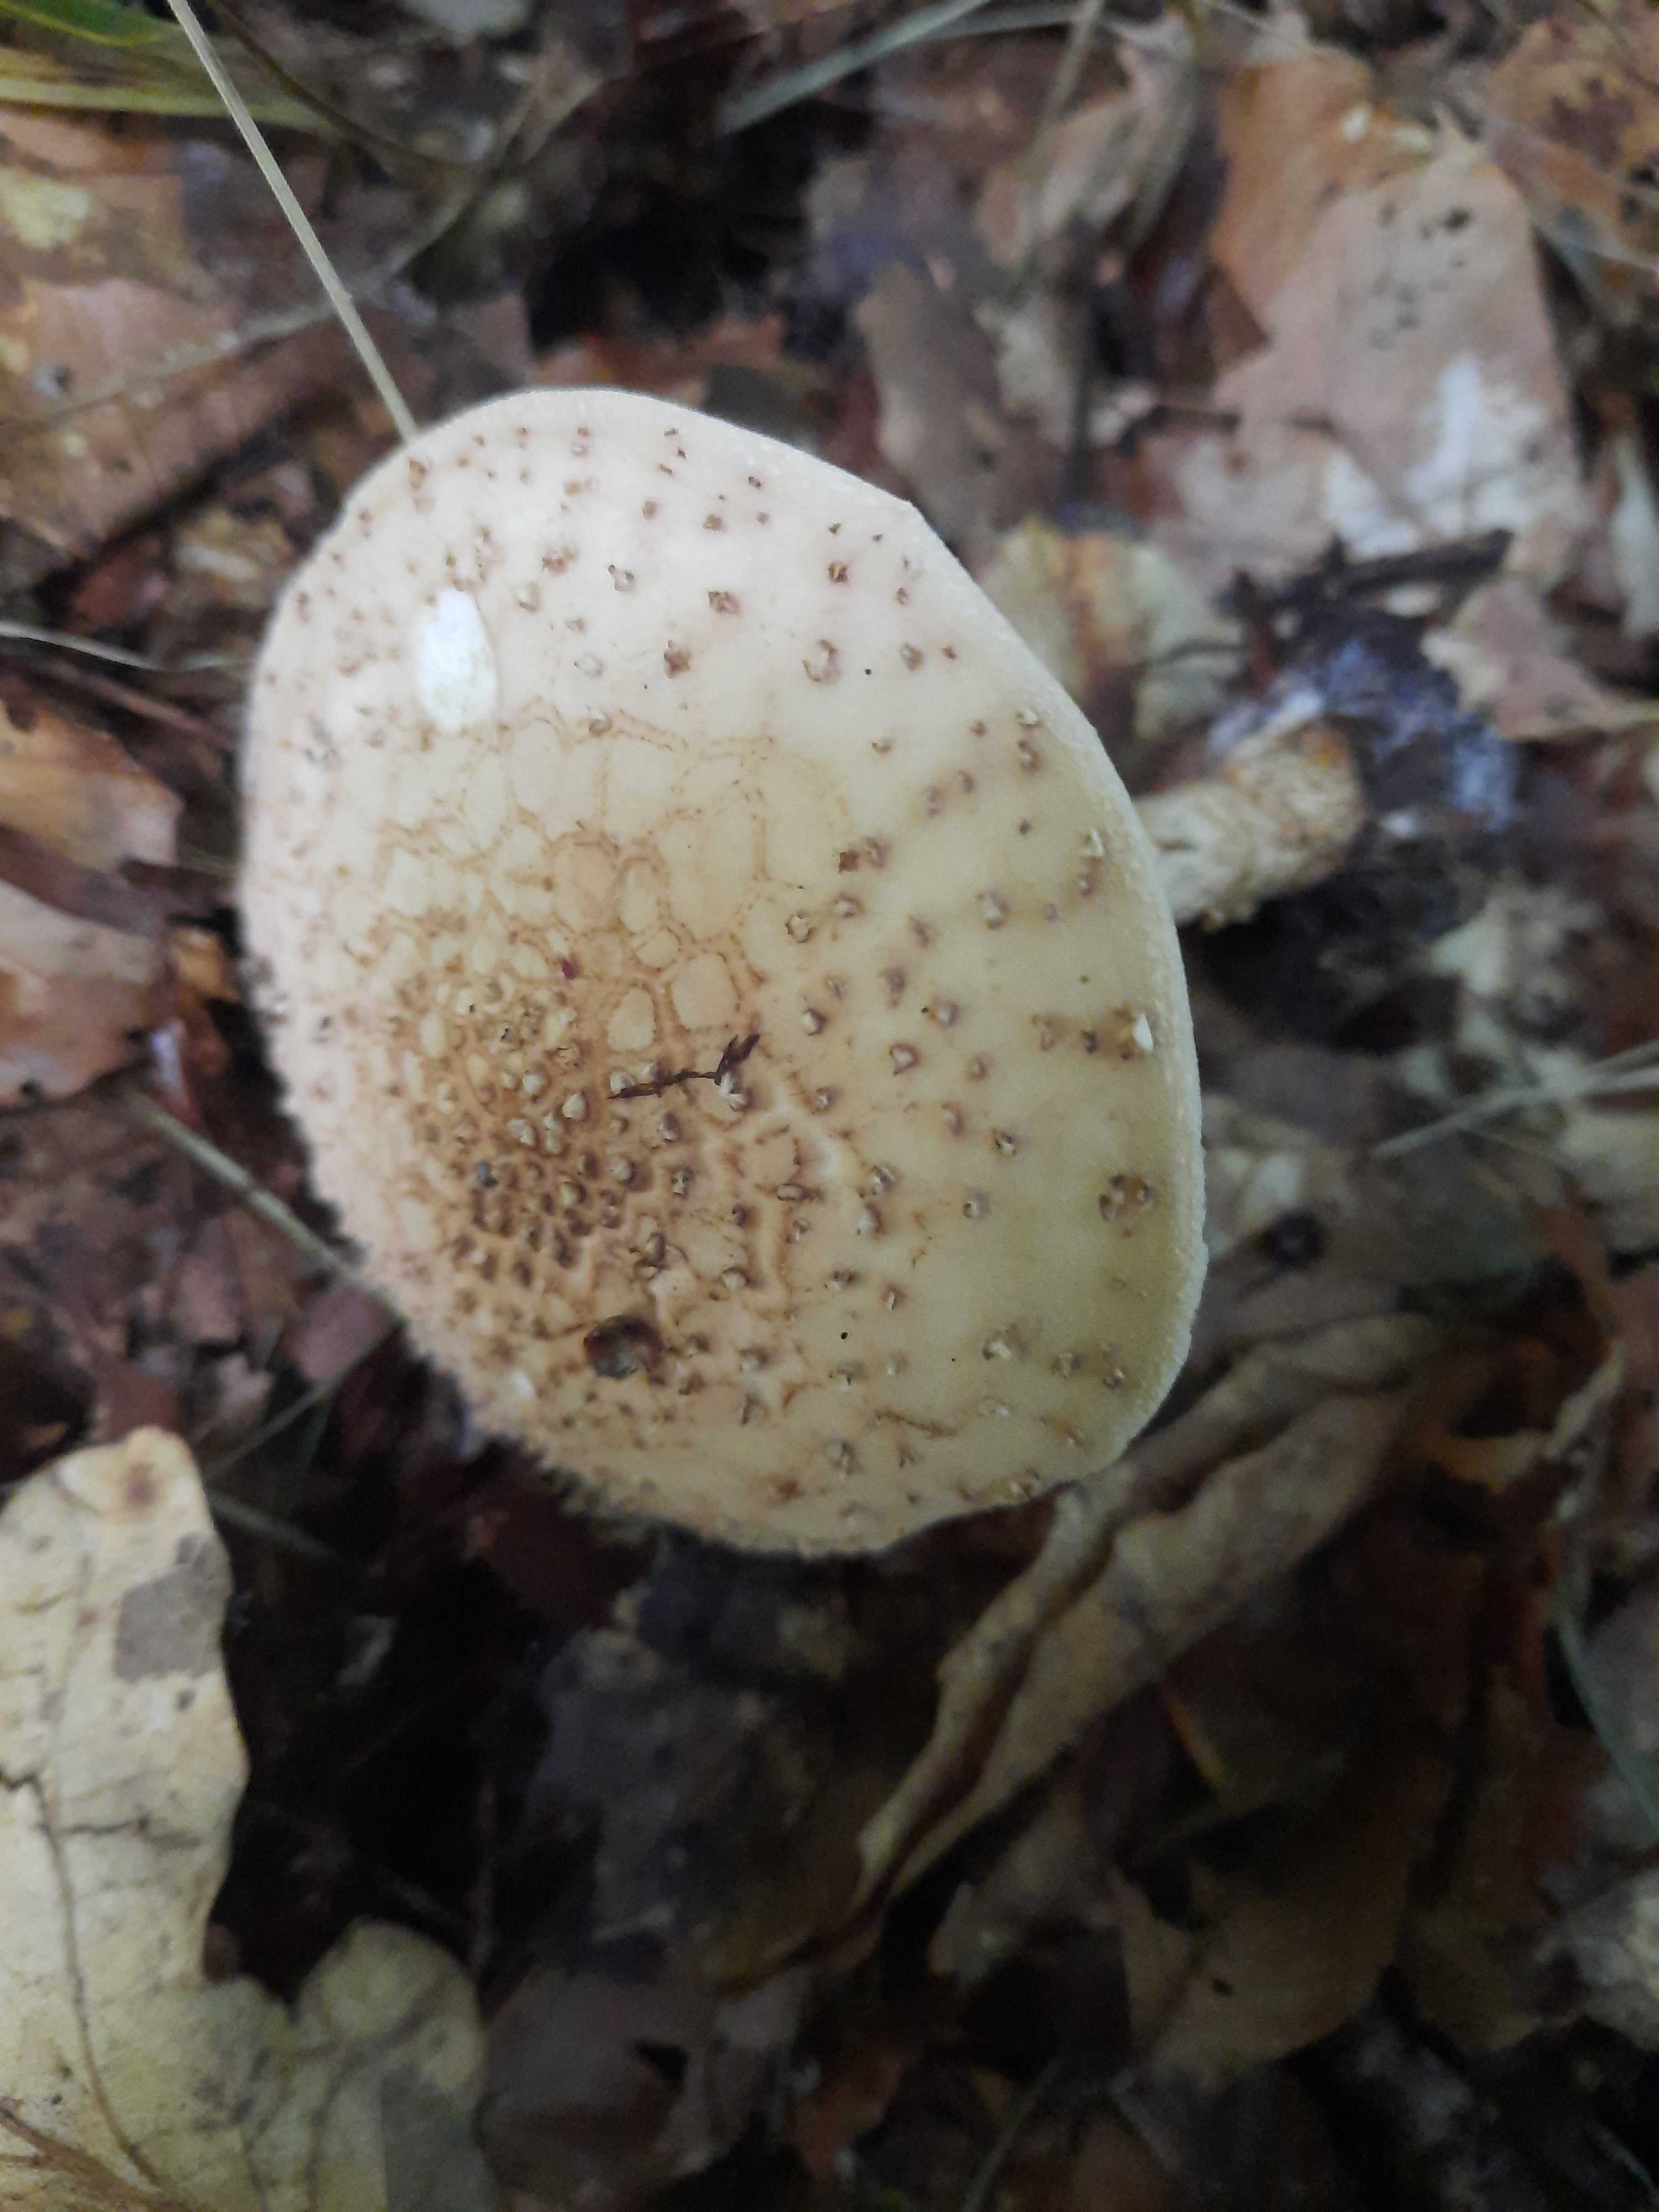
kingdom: Fungi
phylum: Basidiomycota
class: Agaricomycetes
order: Agaricales
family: Agaricaceae
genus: Echinoderma
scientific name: Echinoderma asperum
